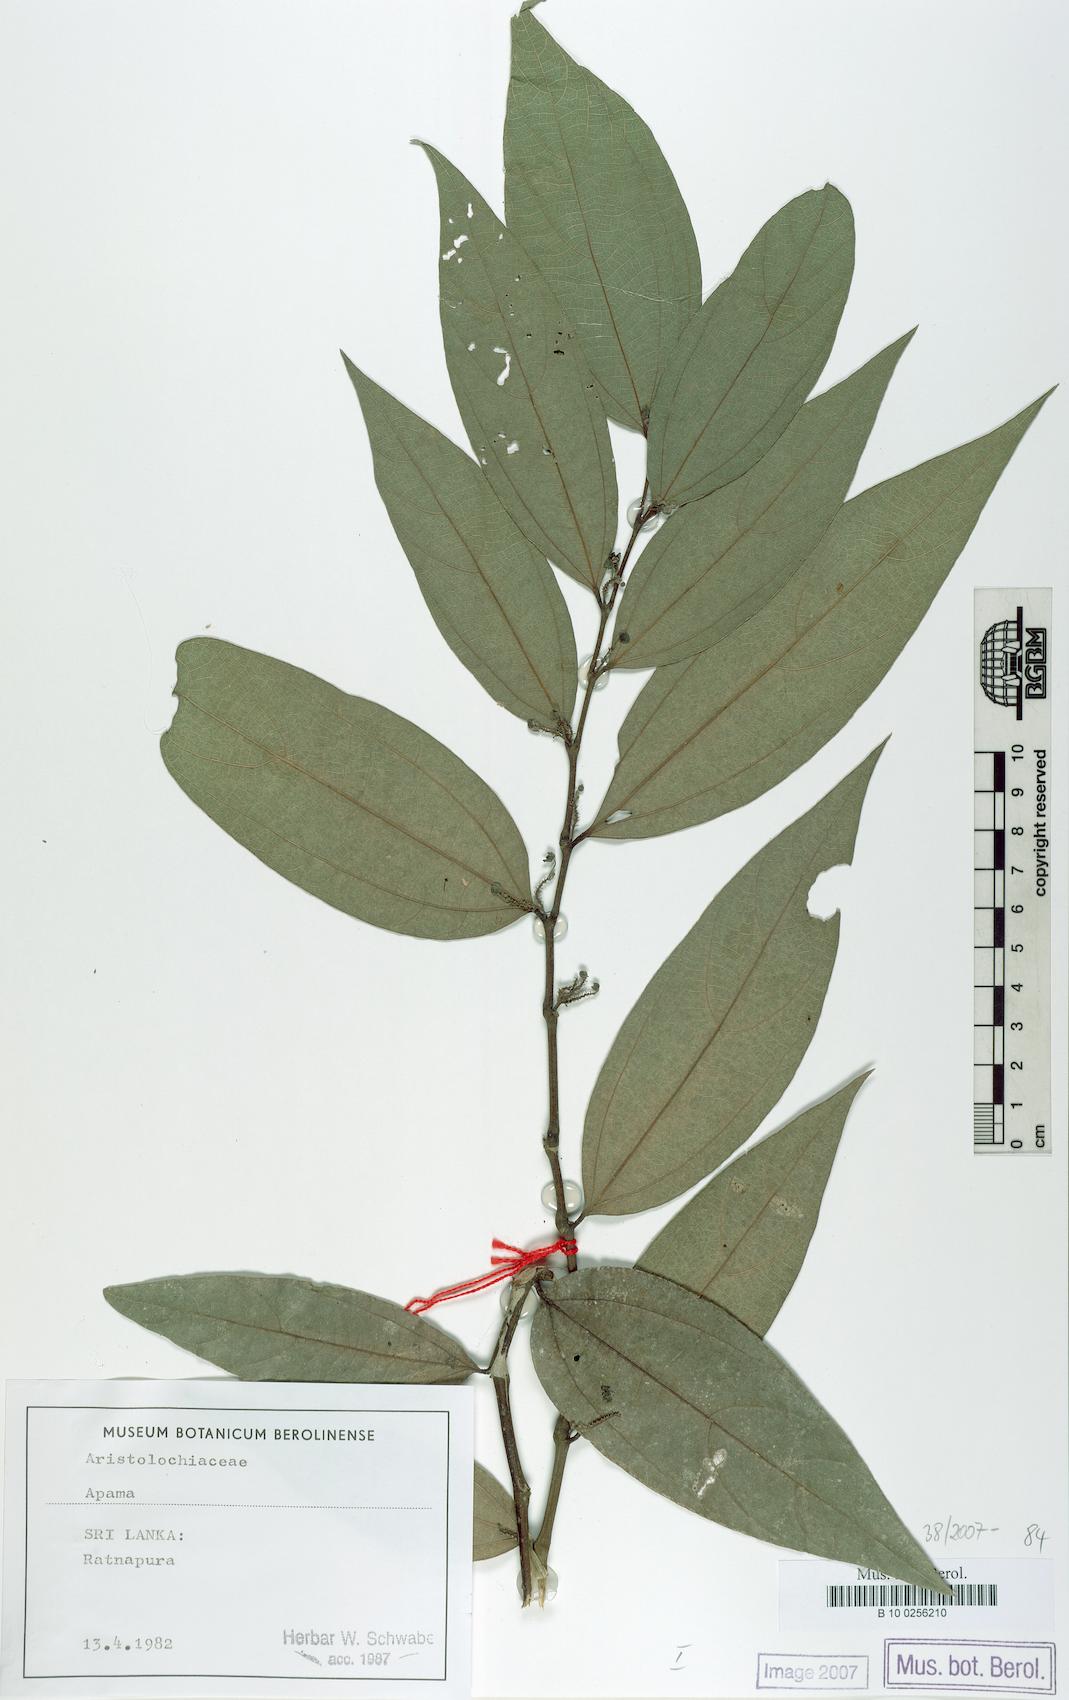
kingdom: Plantae
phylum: Tracheophyta
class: Magnoliopsida
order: Piperales
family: Aristolochiaceae
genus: Thottea
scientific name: Thottea
